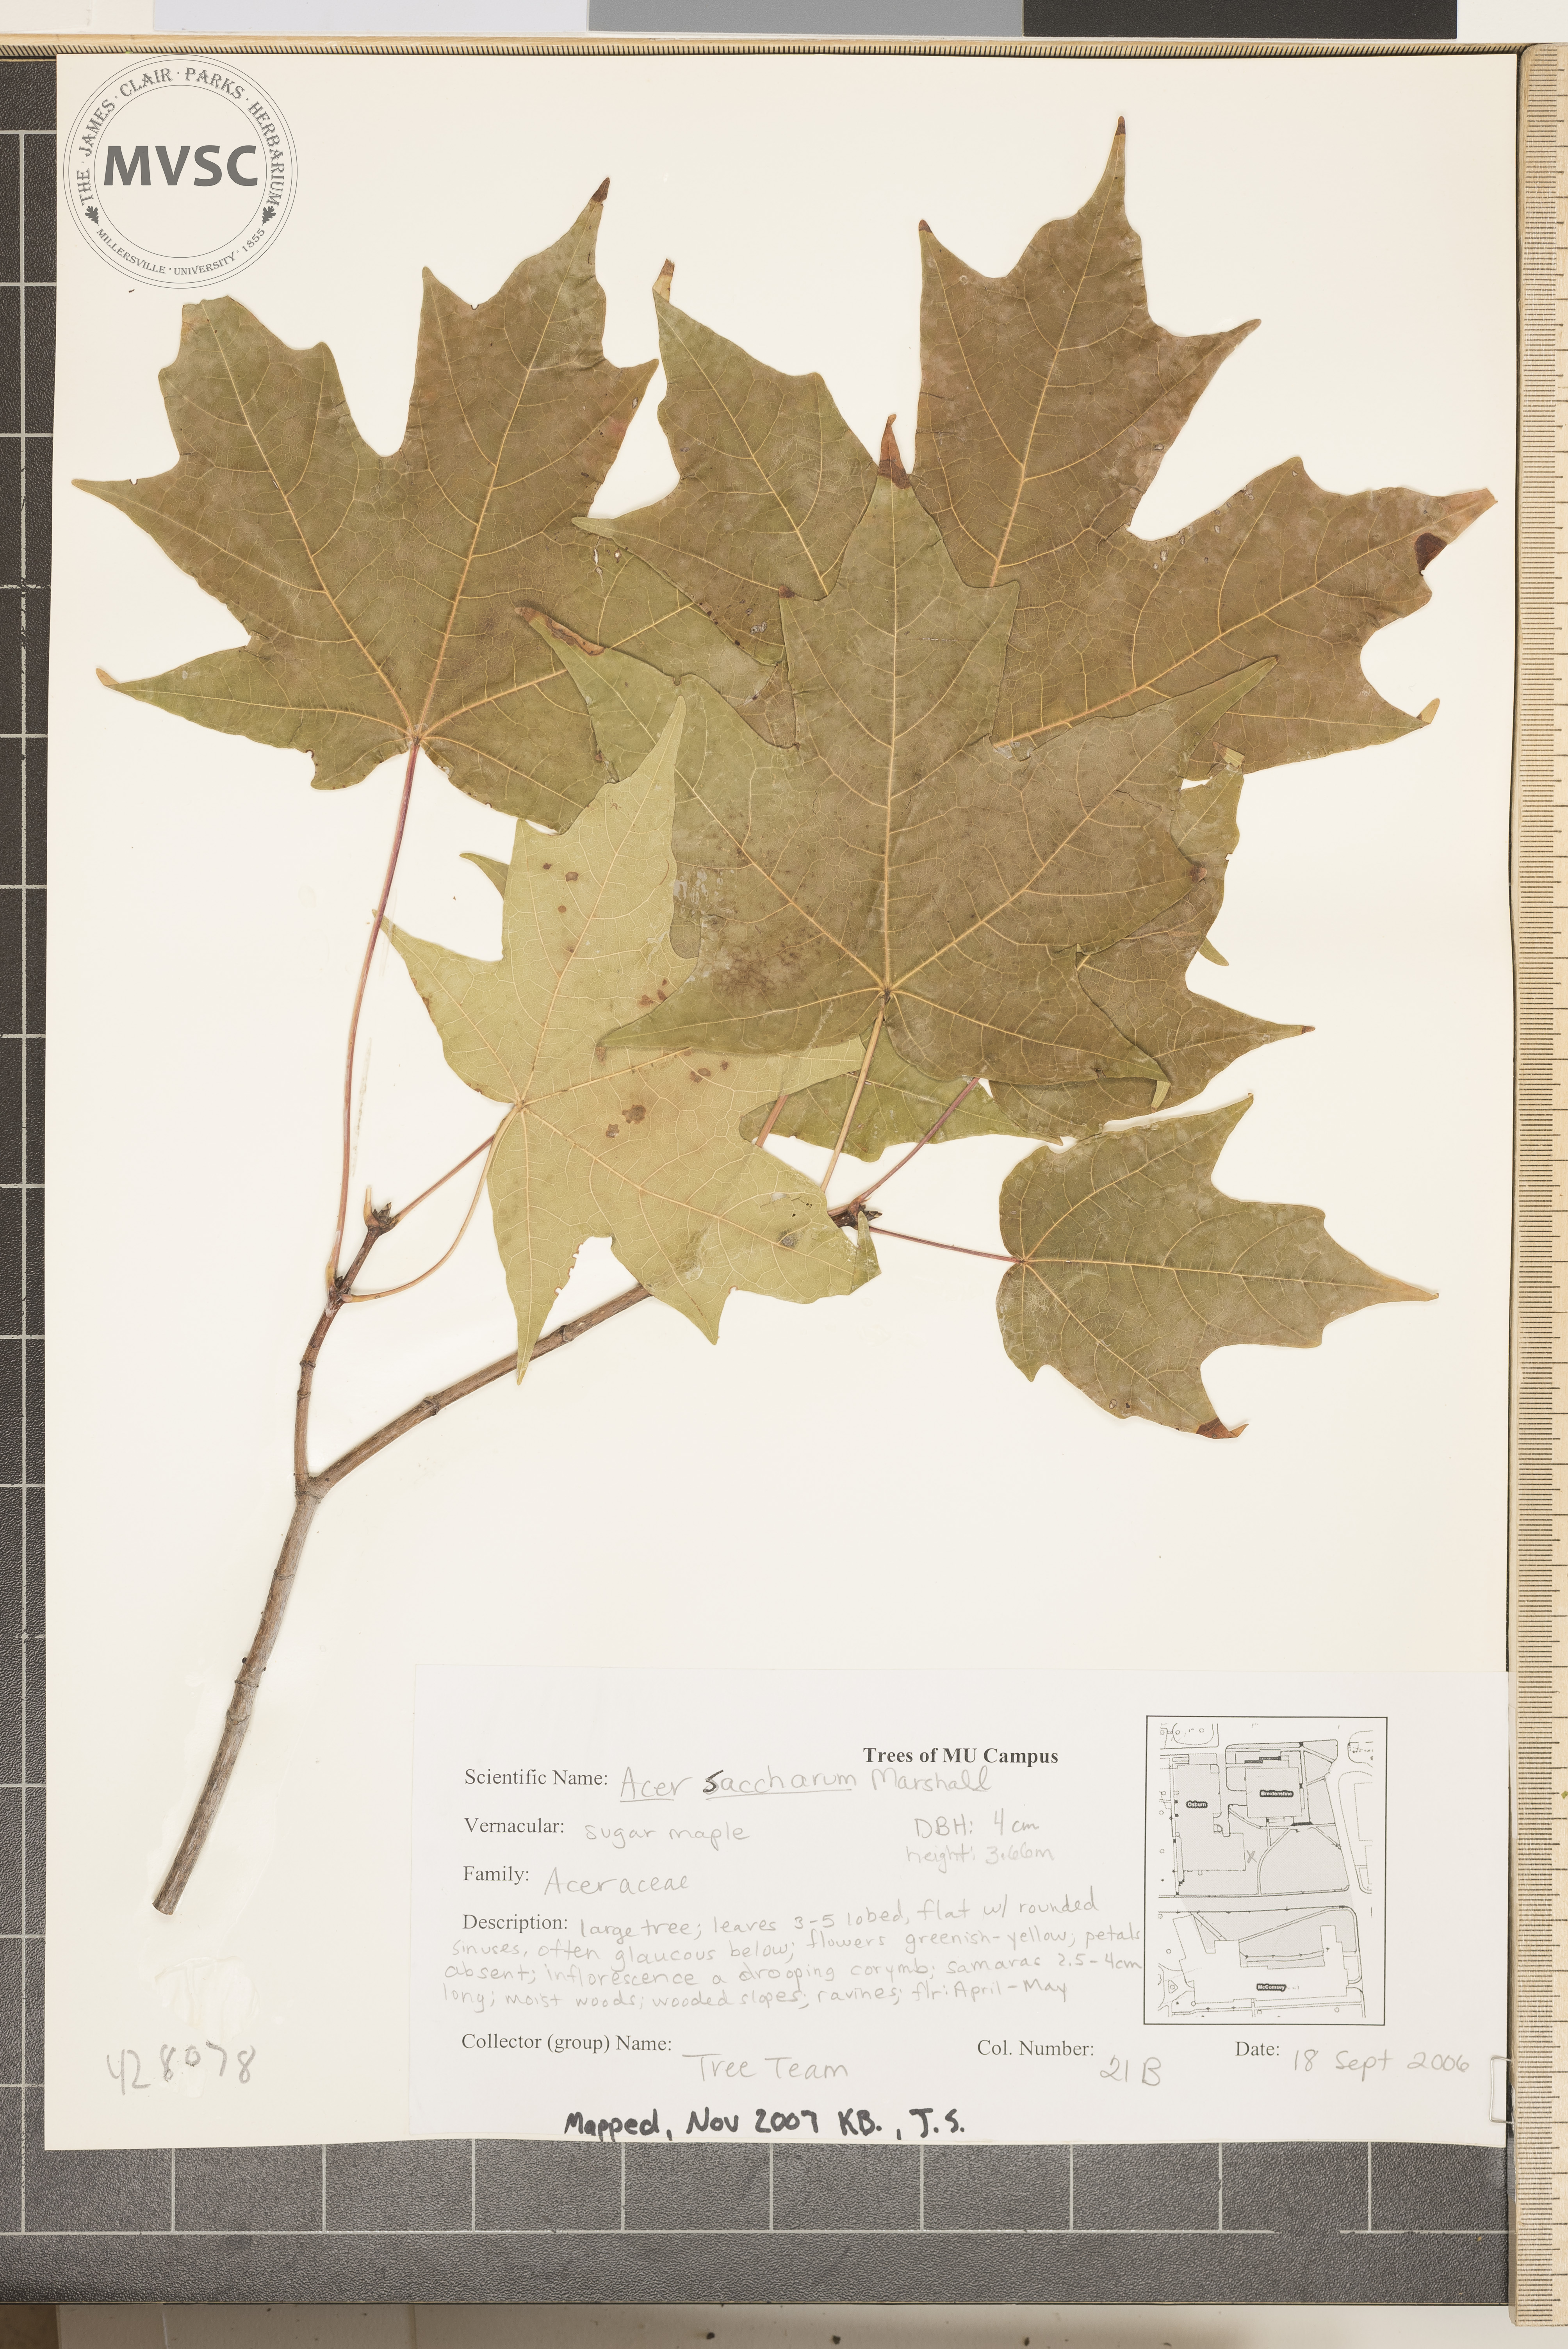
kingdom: Plantae
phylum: Tracheophyta
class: Magnoliopsida
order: Sapindales
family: Sapindaceae
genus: Acer
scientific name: Acer saccharum
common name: Sugar Maple
